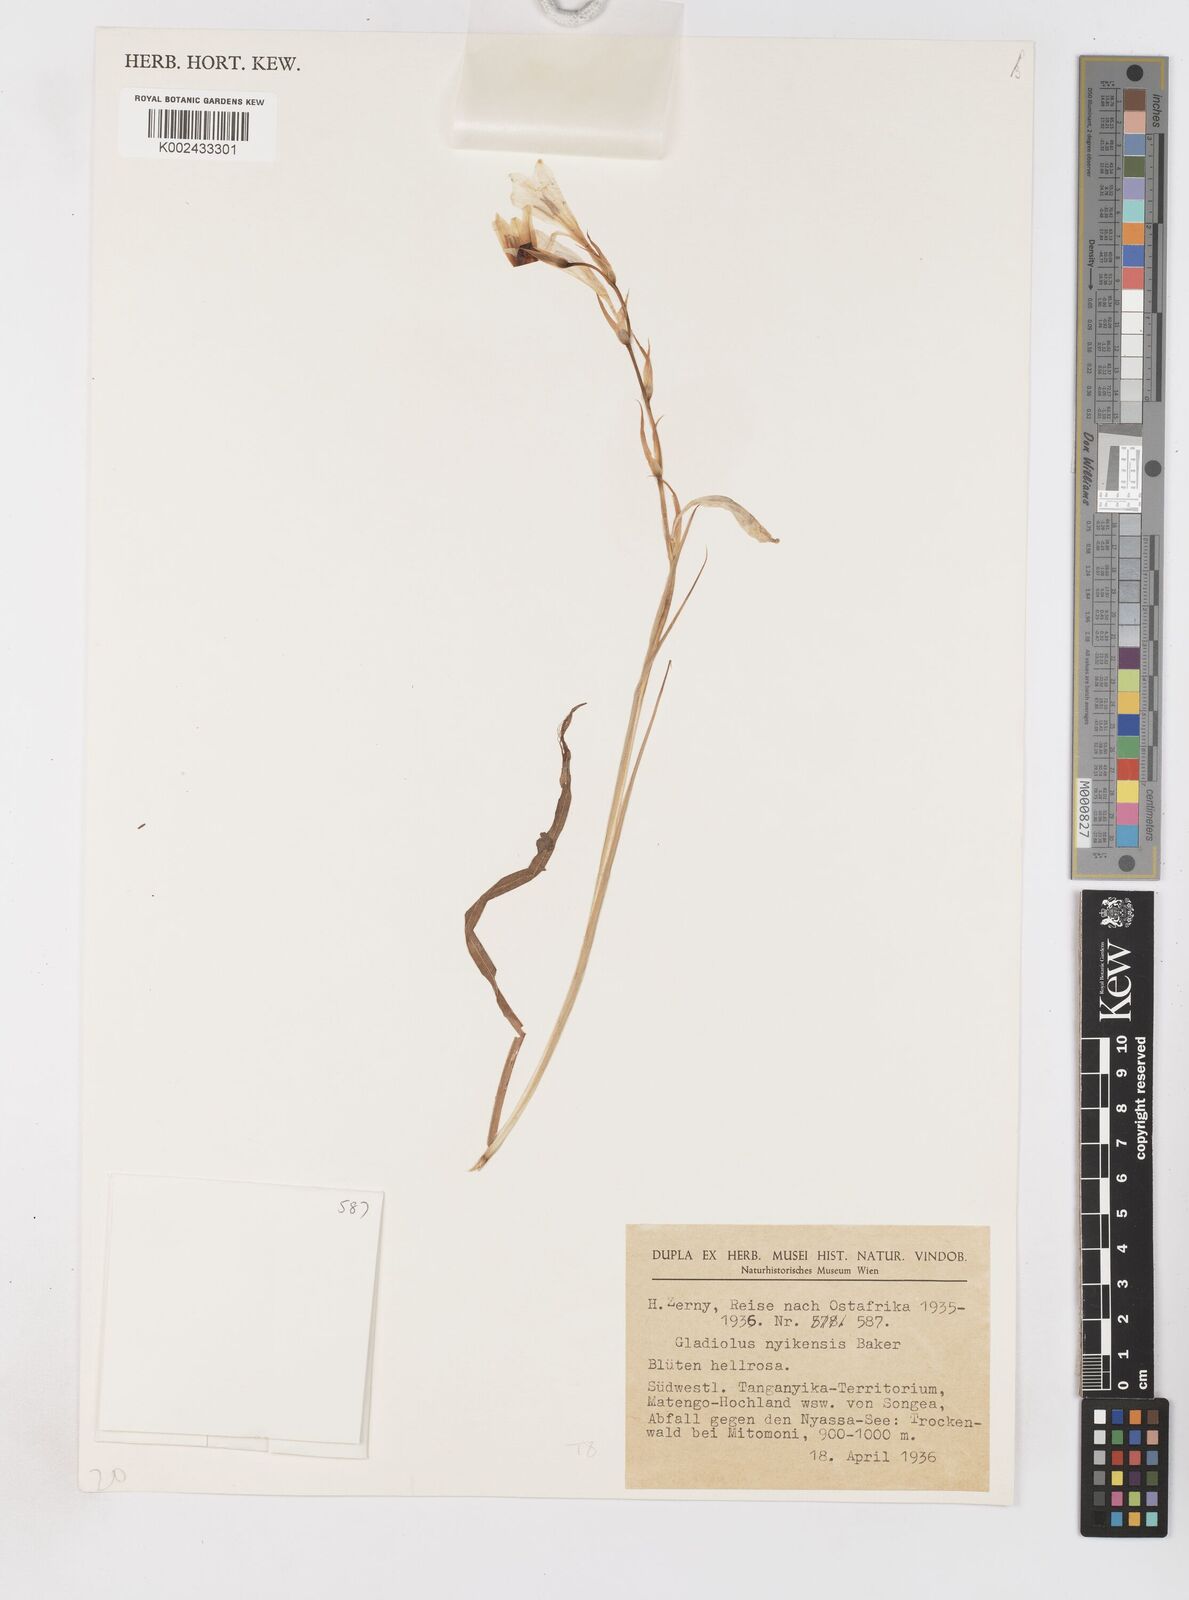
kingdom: Plantae
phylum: Tracheophyta
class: Liliopsida
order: Asparagales
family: Iridaceae
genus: Gladiolus
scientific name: Gladiolus erectiflorus
